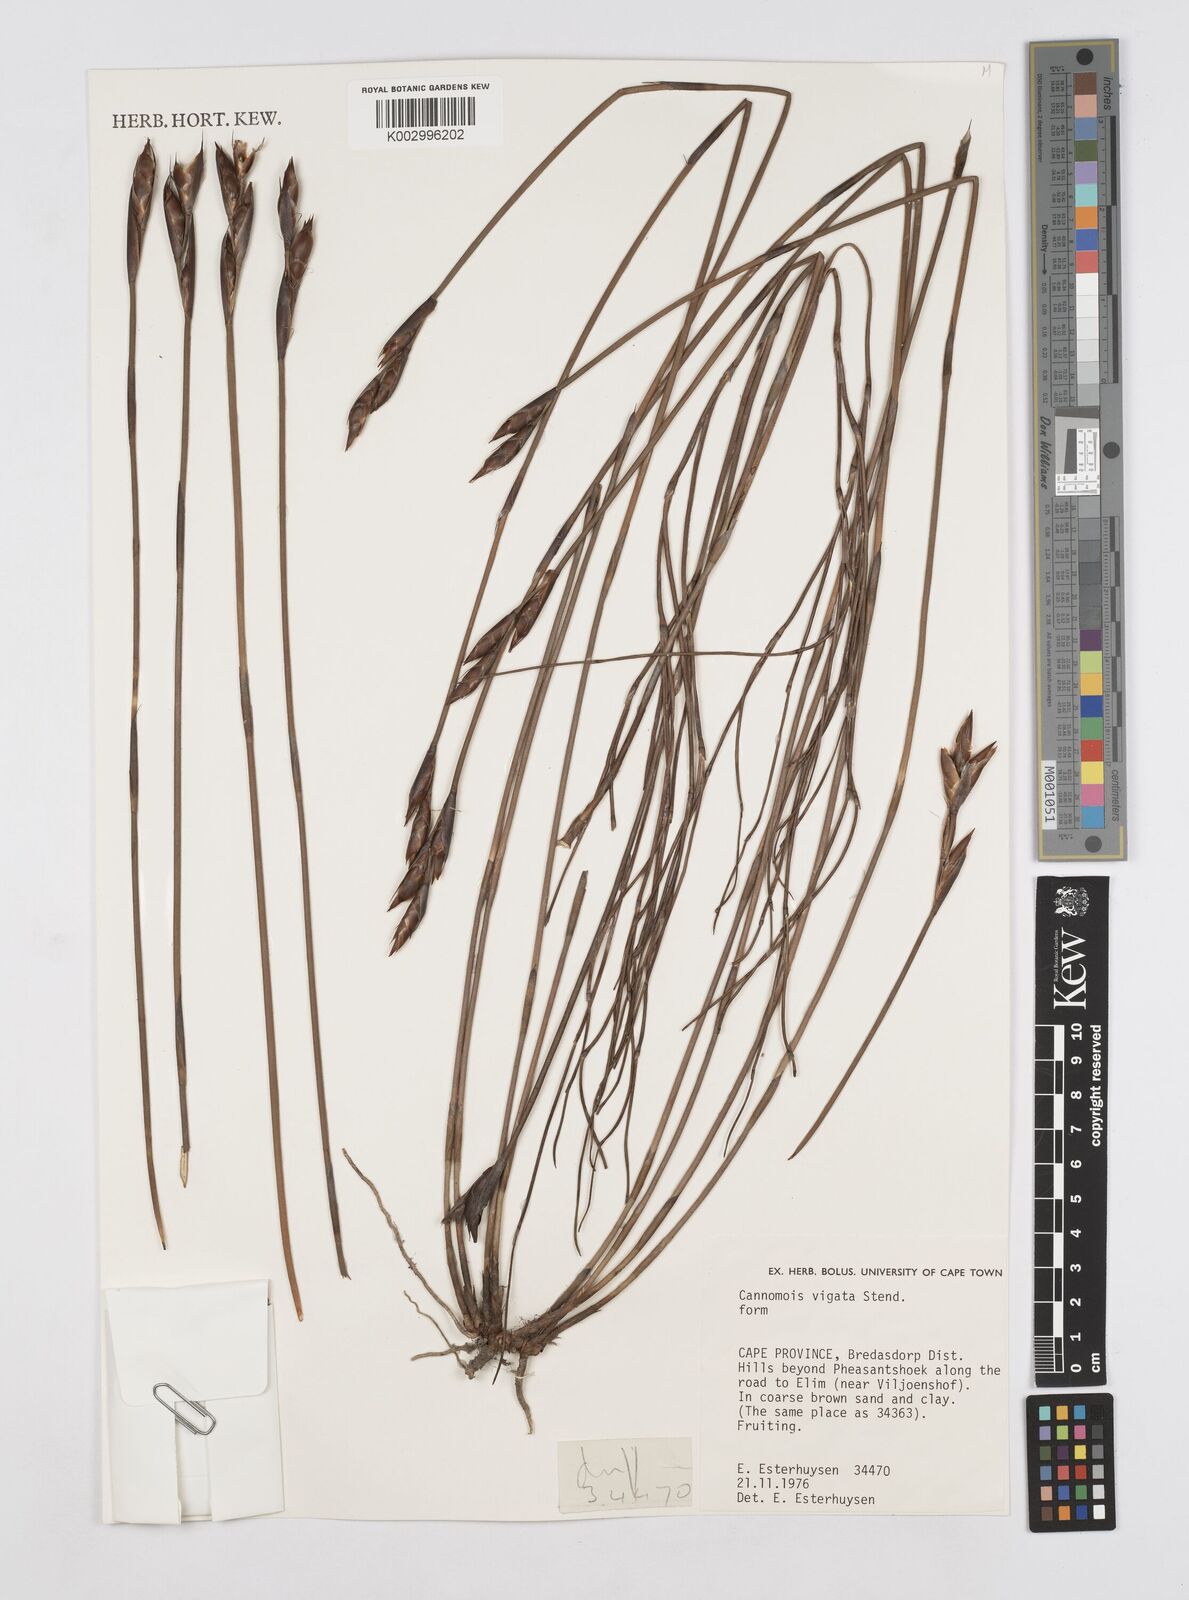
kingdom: Plantae
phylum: Tracheophyta
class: Liliopsida
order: Poales
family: Restionaceae
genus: Cannomois
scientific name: Cannomois virgata
